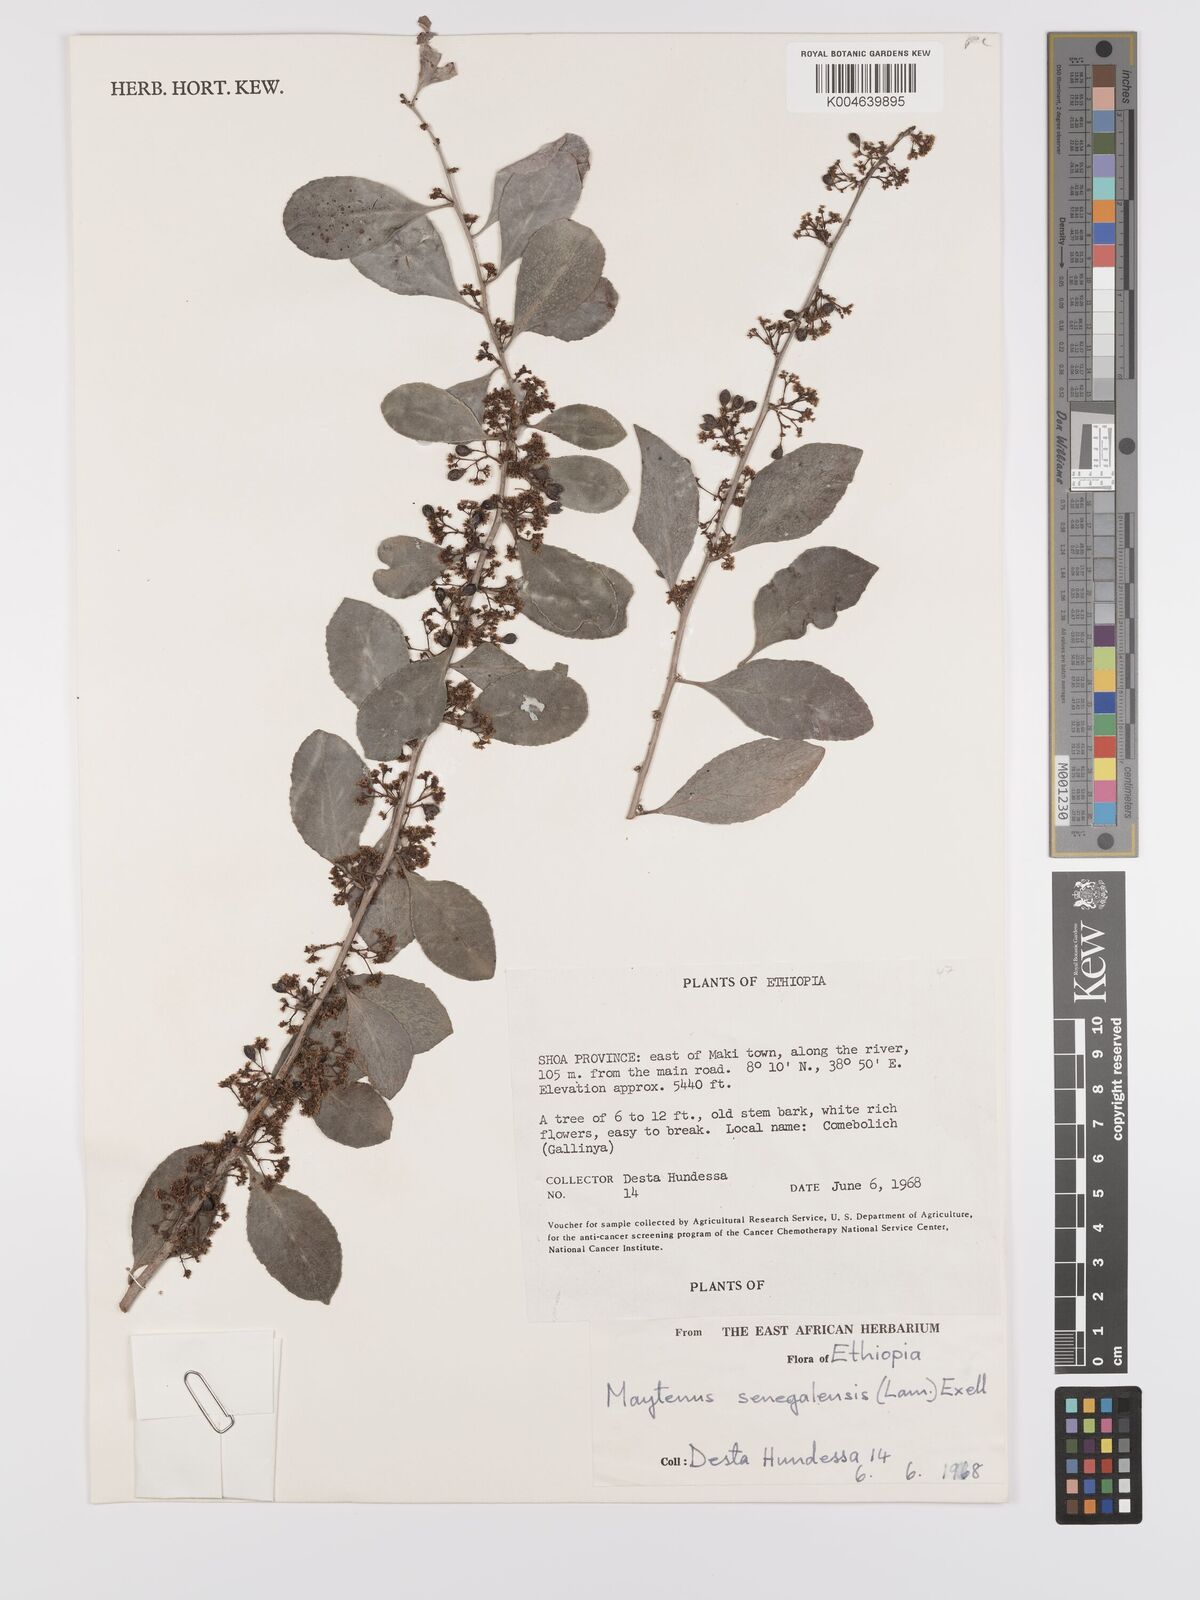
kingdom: Plantae
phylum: Tracheophyta
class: Magnoliopsida
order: Celastrales
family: Celastraceae
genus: Gymnosporia
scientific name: Gymnosporia senegalensis
